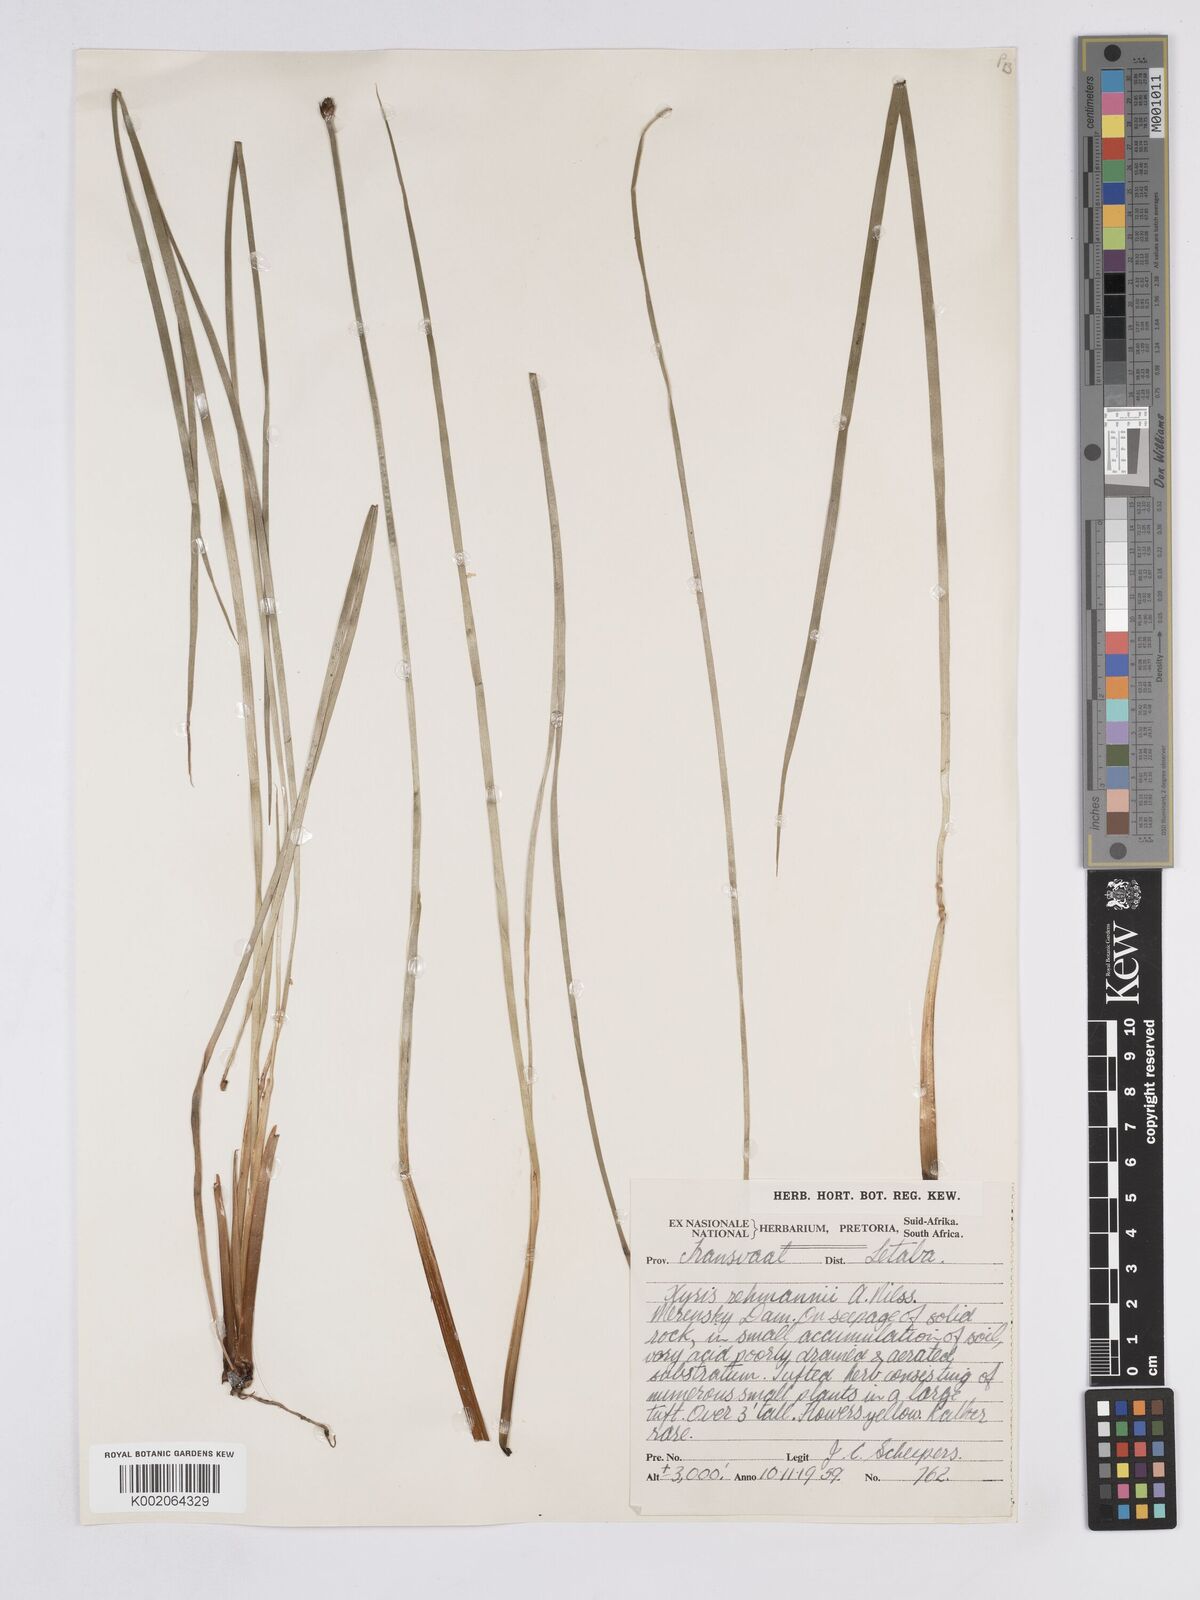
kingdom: Plantae
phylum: Tracheophyta
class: Liliopsida
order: Poales
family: Xyridaceae
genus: Xyris
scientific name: Xyris rehmannii
